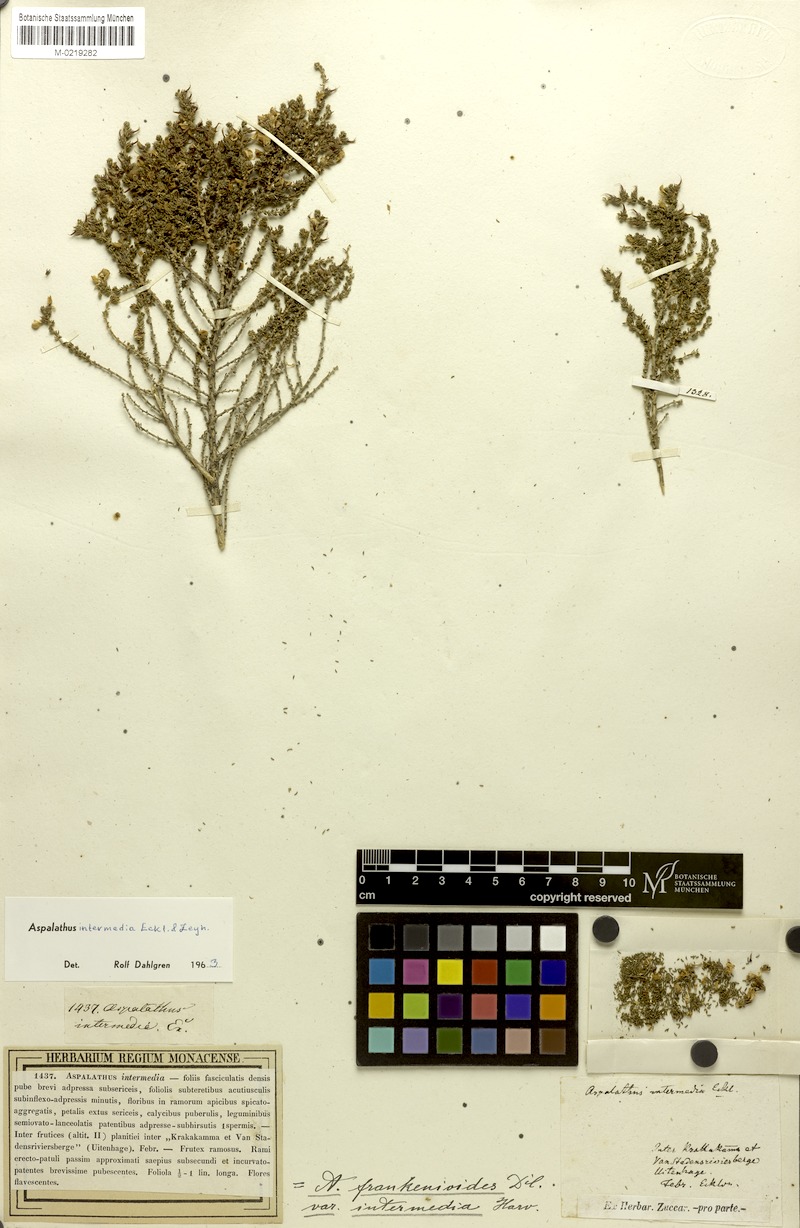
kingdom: Plantae
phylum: Tracheophyta
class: Magnoliopsida
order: Fabales
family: Fabaceae
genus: Aspalathus
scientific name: Aspalathus intermedia
